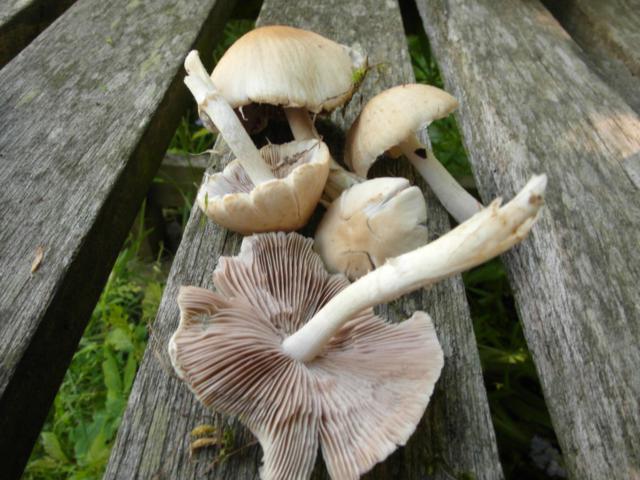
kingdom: Fungi
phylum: Basidiomycota
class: Agaricomycetes
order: Agaricales
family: Psathyrellaceae
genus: Candolleomyces
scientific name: Candolleomyces candolleanus
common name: Candolles mørkhat
